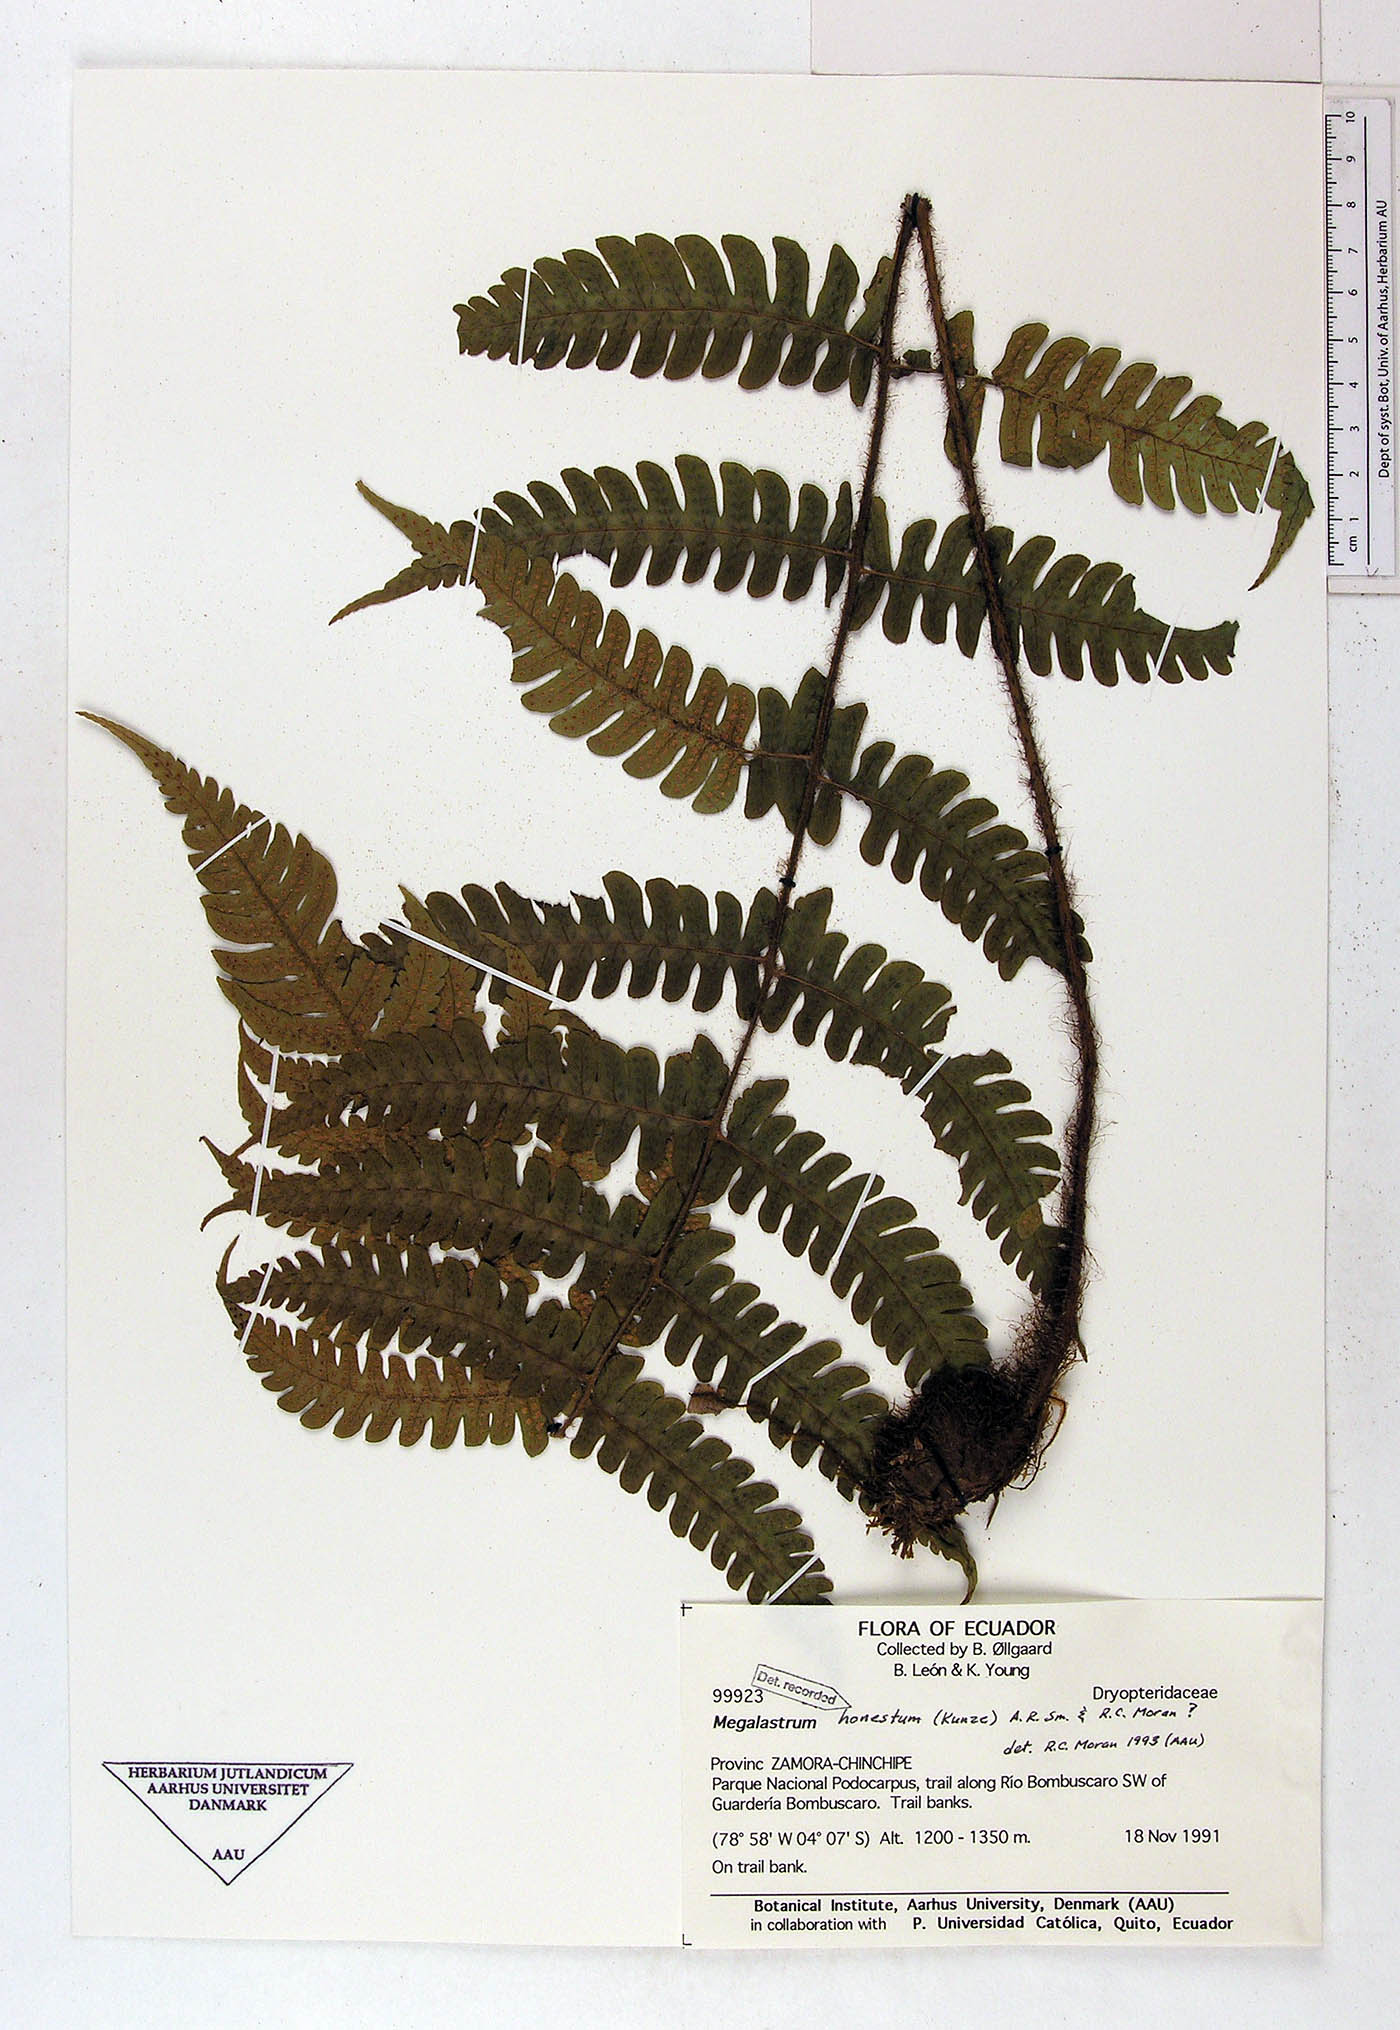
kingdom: Plantae
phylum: Tracheophyta
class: Polypodiopsida
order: Polypodiales
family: Dryopteridaceae
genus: Megalastrum
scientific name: Megalastrum fibrillosum
